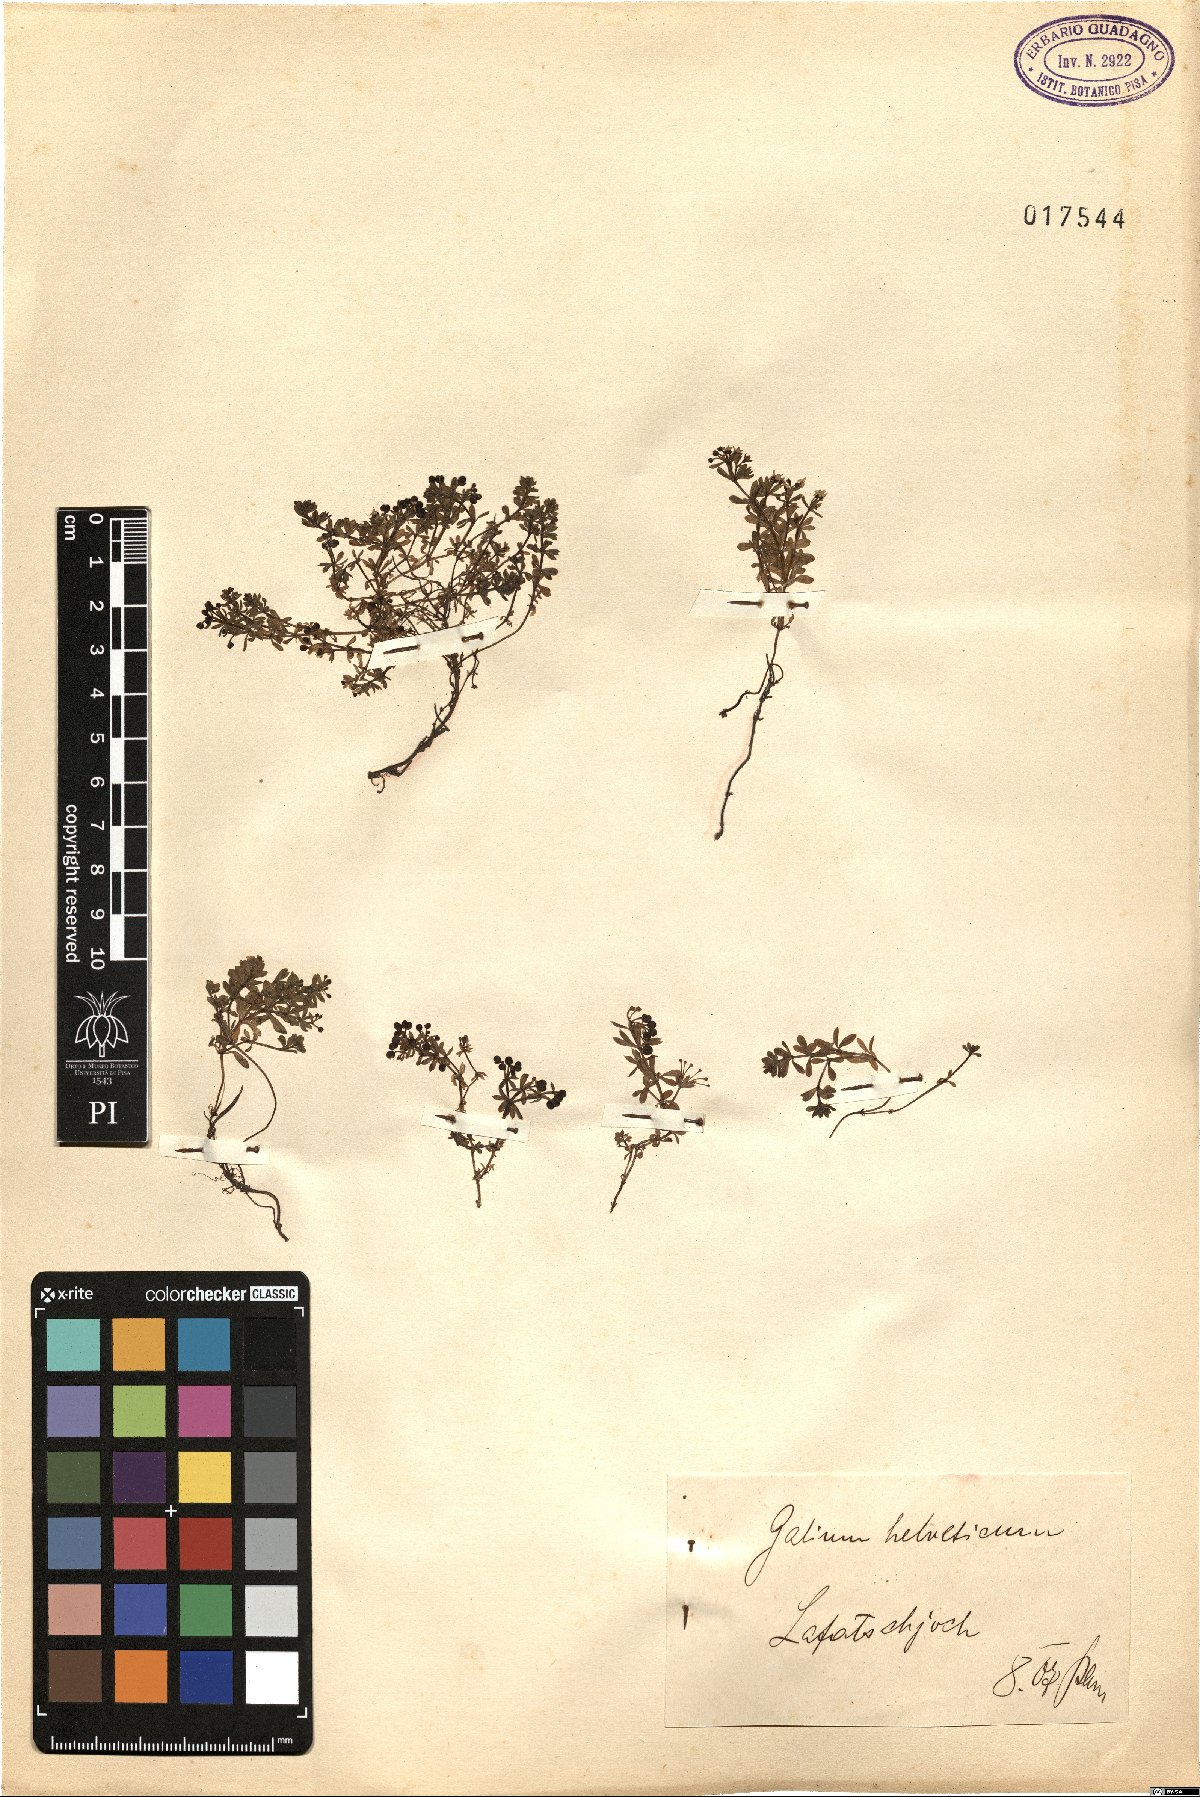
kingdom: Plantae
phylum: Tracheophyta
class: Magnoliopsida
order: Gentianales
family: Rubiaceae
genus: Galium
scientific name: Galium saxatile
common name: Heath bedstraw
